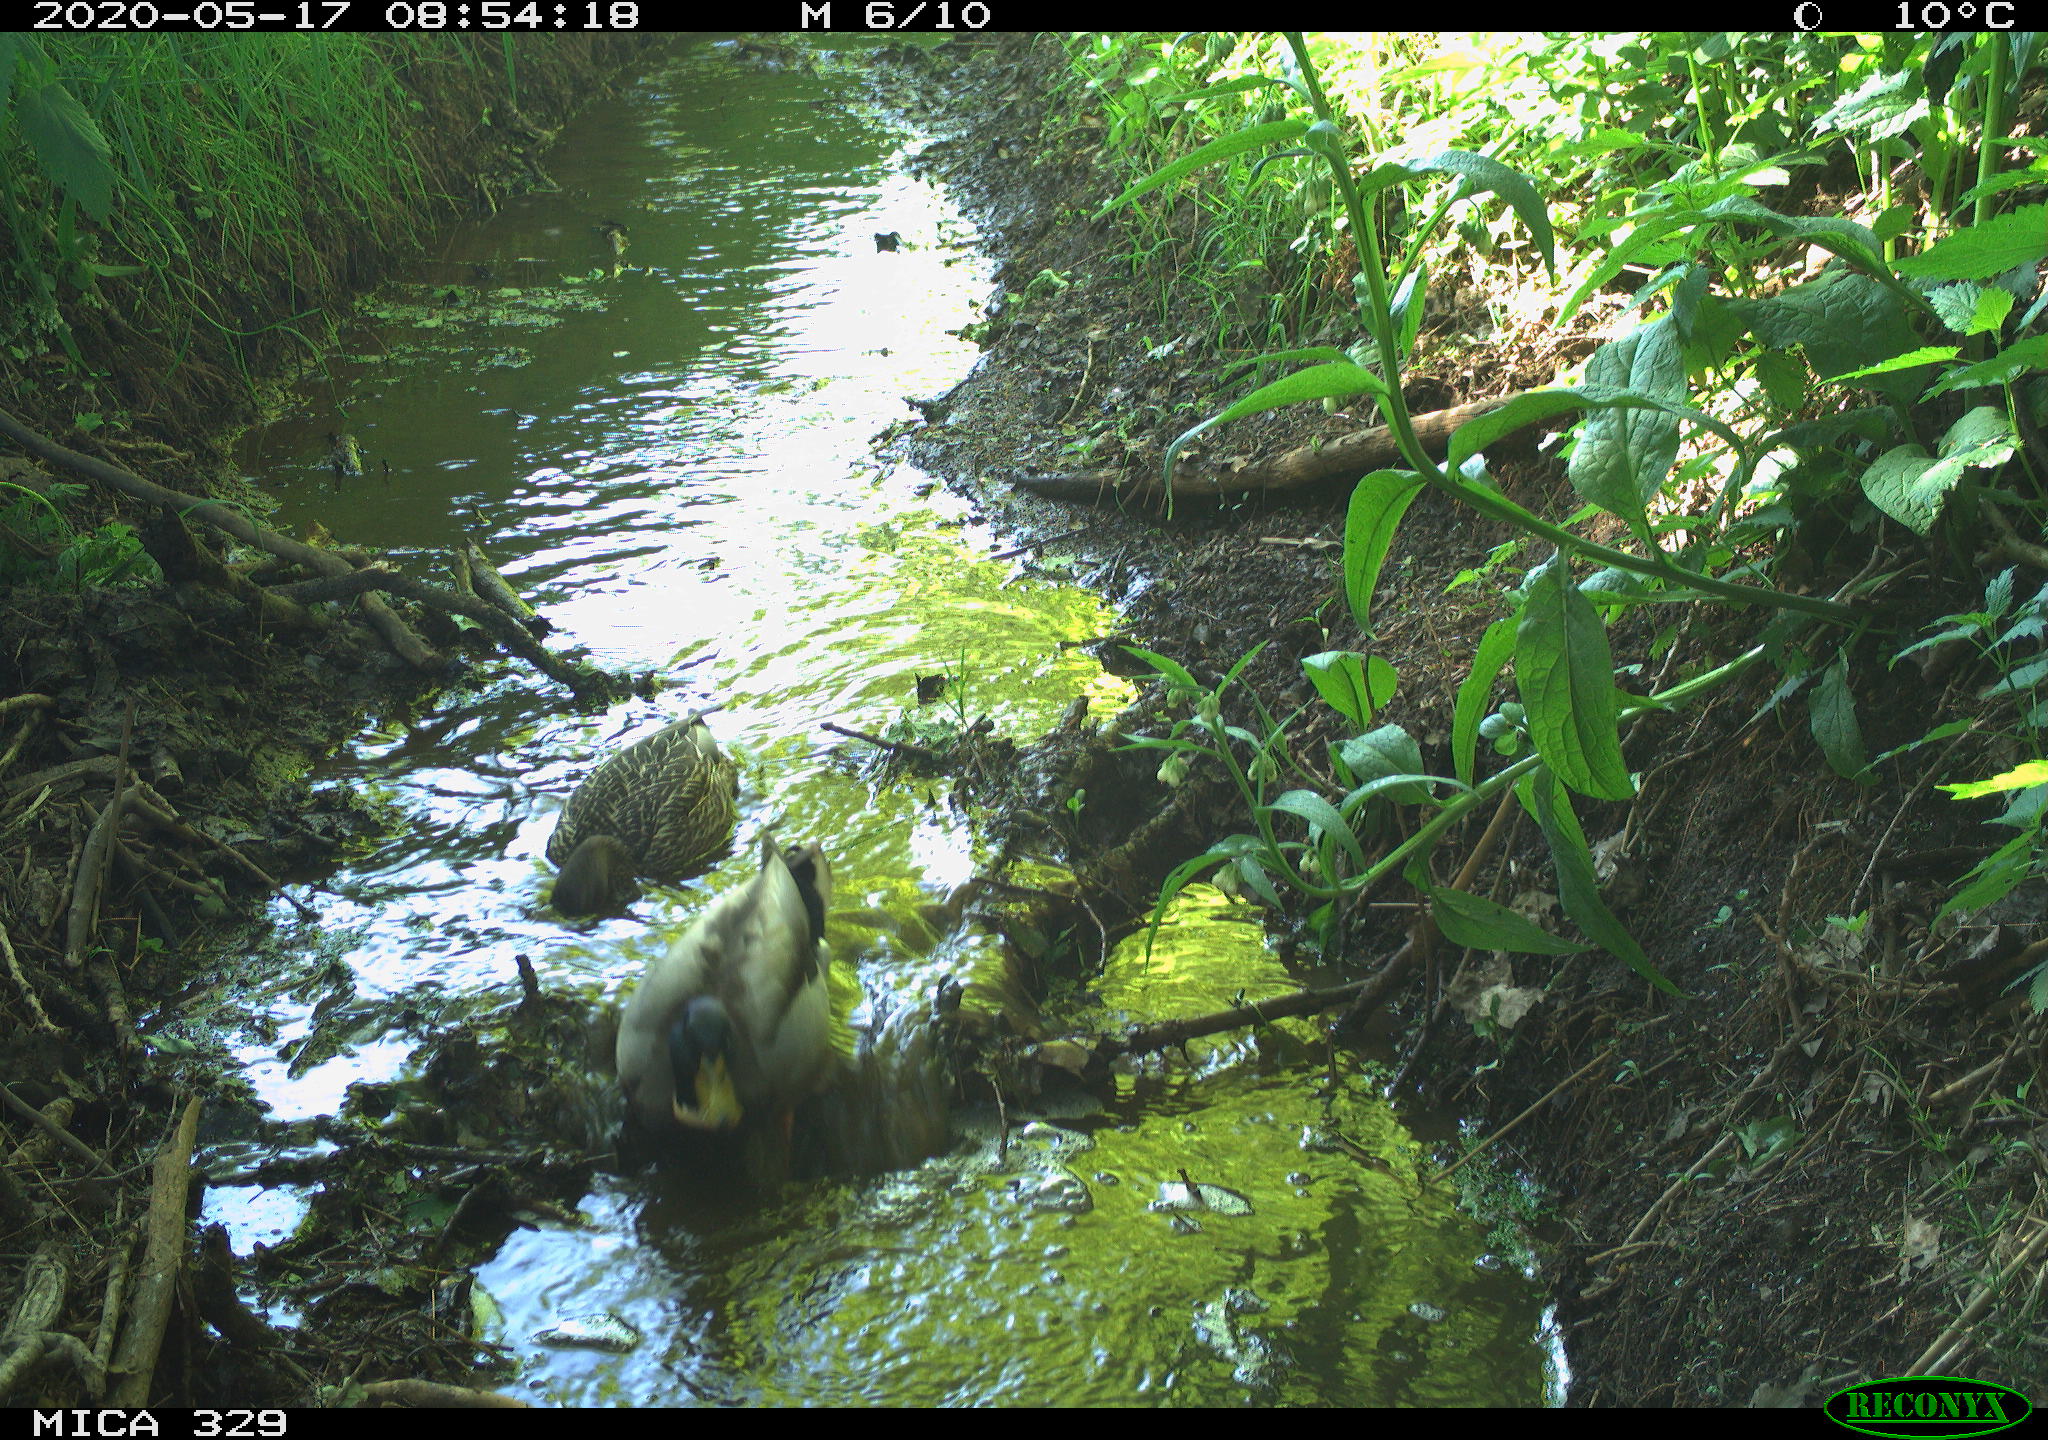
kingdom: Animalia
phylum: Chordata
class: Aves
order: Anseriformes
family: Anatidae
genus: Anas
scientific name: Anas platyrhynchos
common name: Mallard
